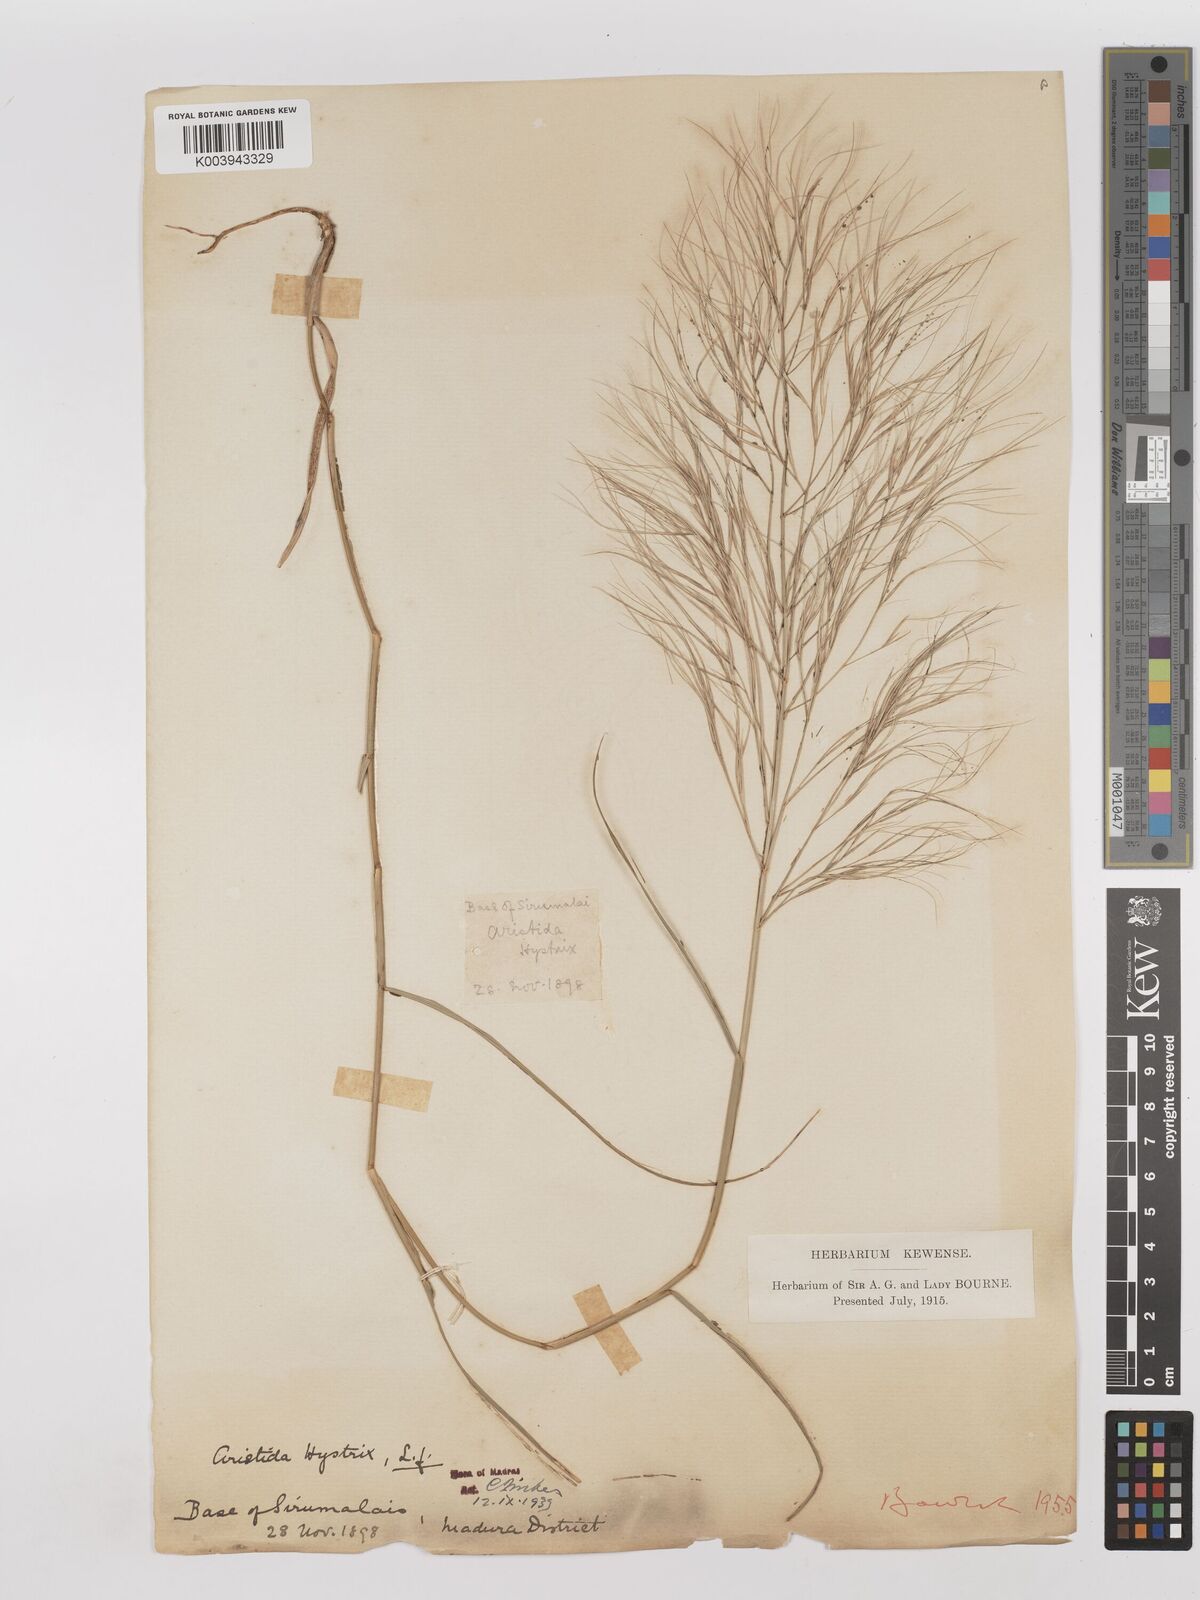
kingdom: Plantae
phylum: Tracheophyta
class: Liliopsida
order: Poales
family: Poaceae
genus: Aristida
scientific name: Aristida hystrix
